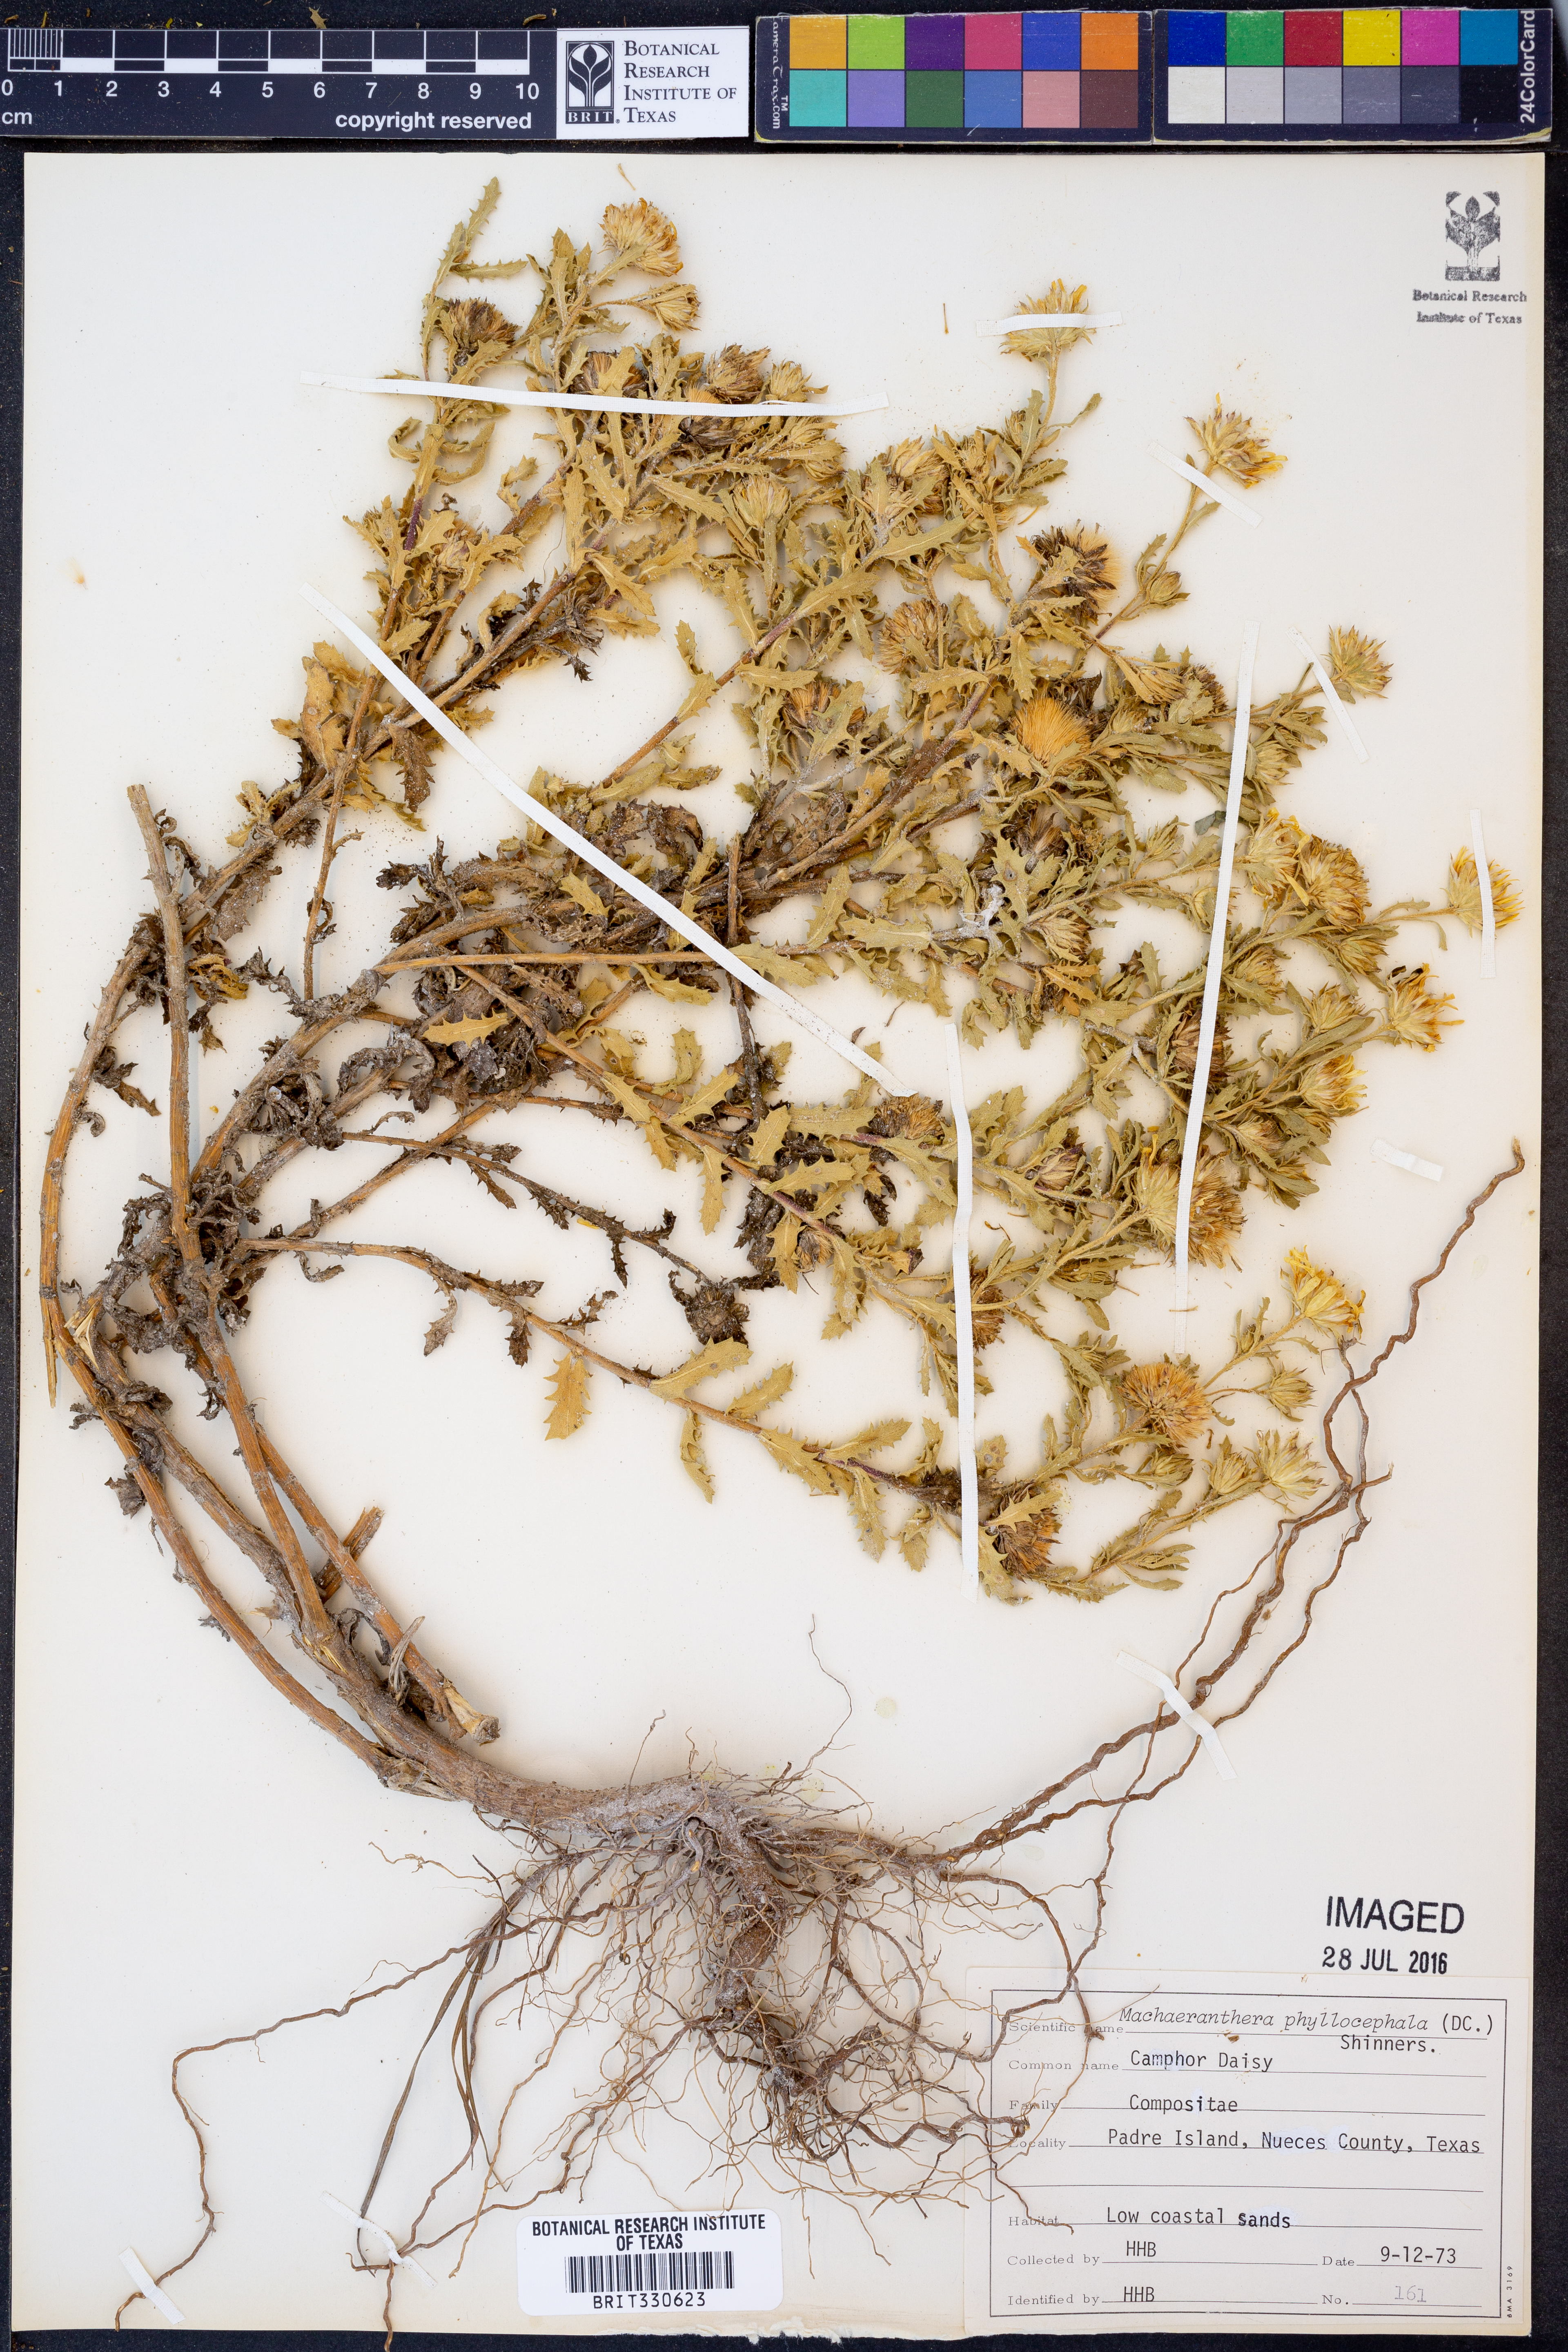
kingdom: Plantae
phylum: Tracheophyta
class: Magnoliopsida
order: Asterales
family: Asteraceae
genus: Rayjacksonia
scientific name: Rayjacksonia phyllocephala
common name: Gulf coast camphor daisy
